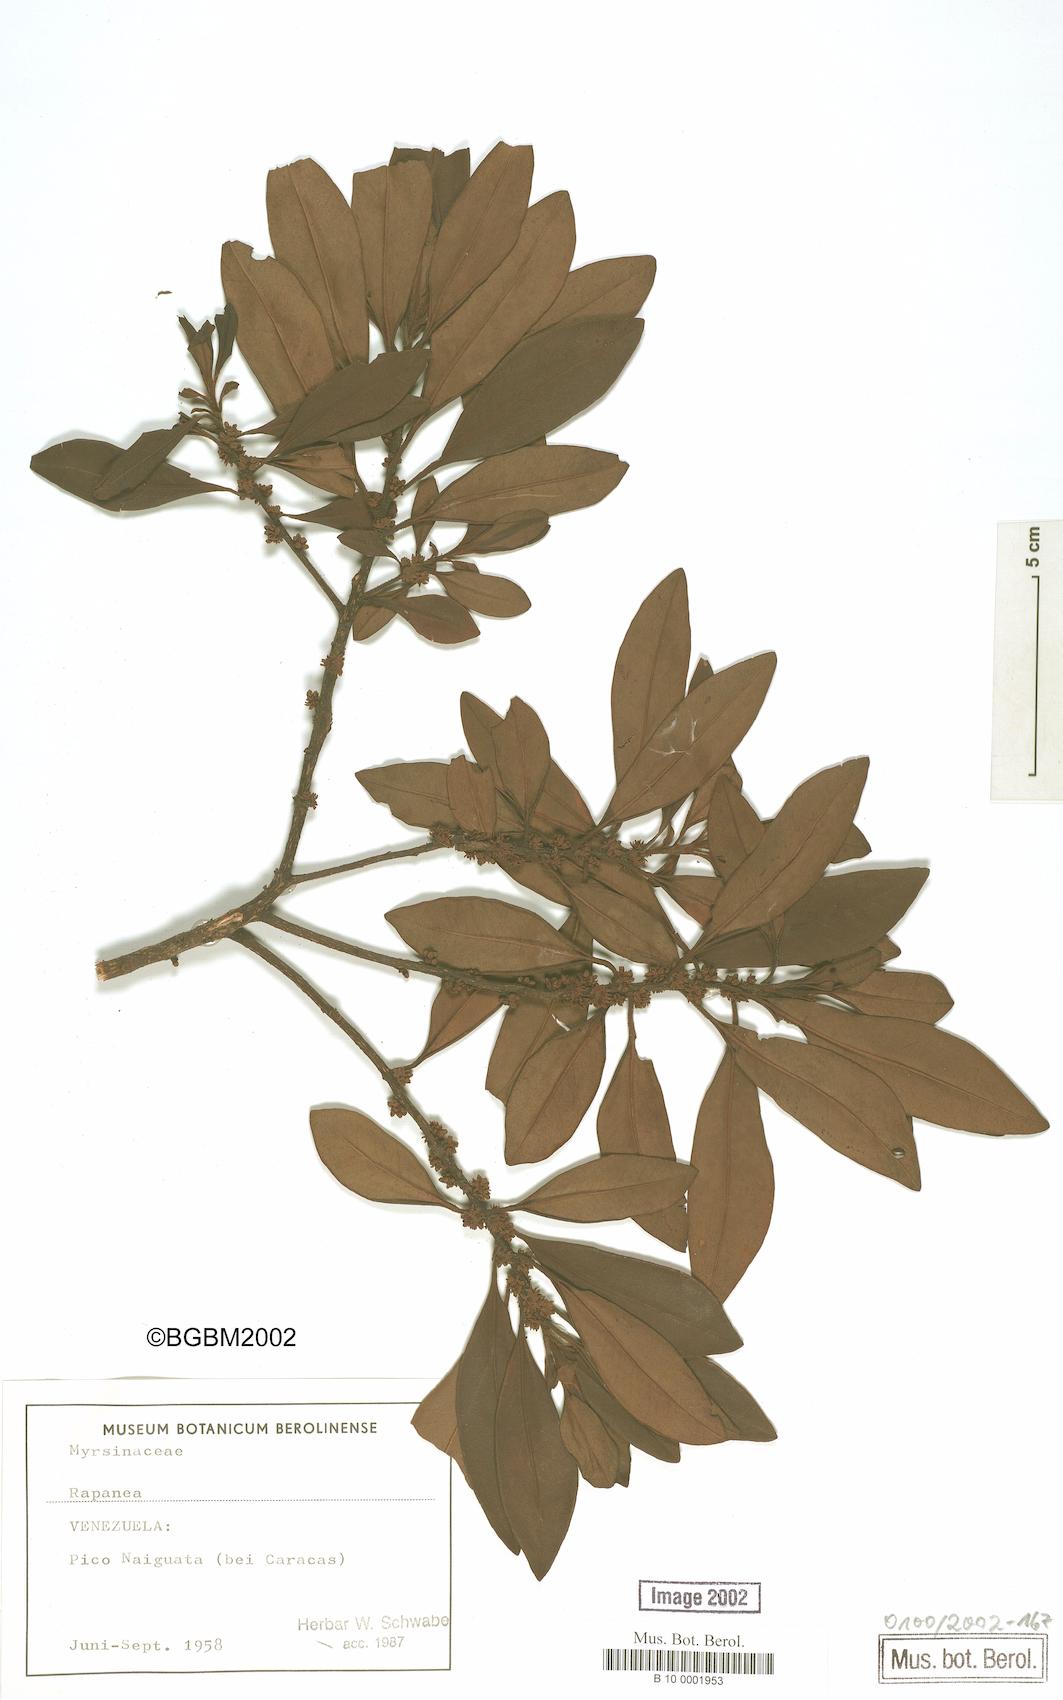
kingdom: Plantae
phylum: Tracheophyta
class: Magnoliopsida
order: Ericales
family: Primulaceae
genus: Myrsine
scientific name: Myrsine
